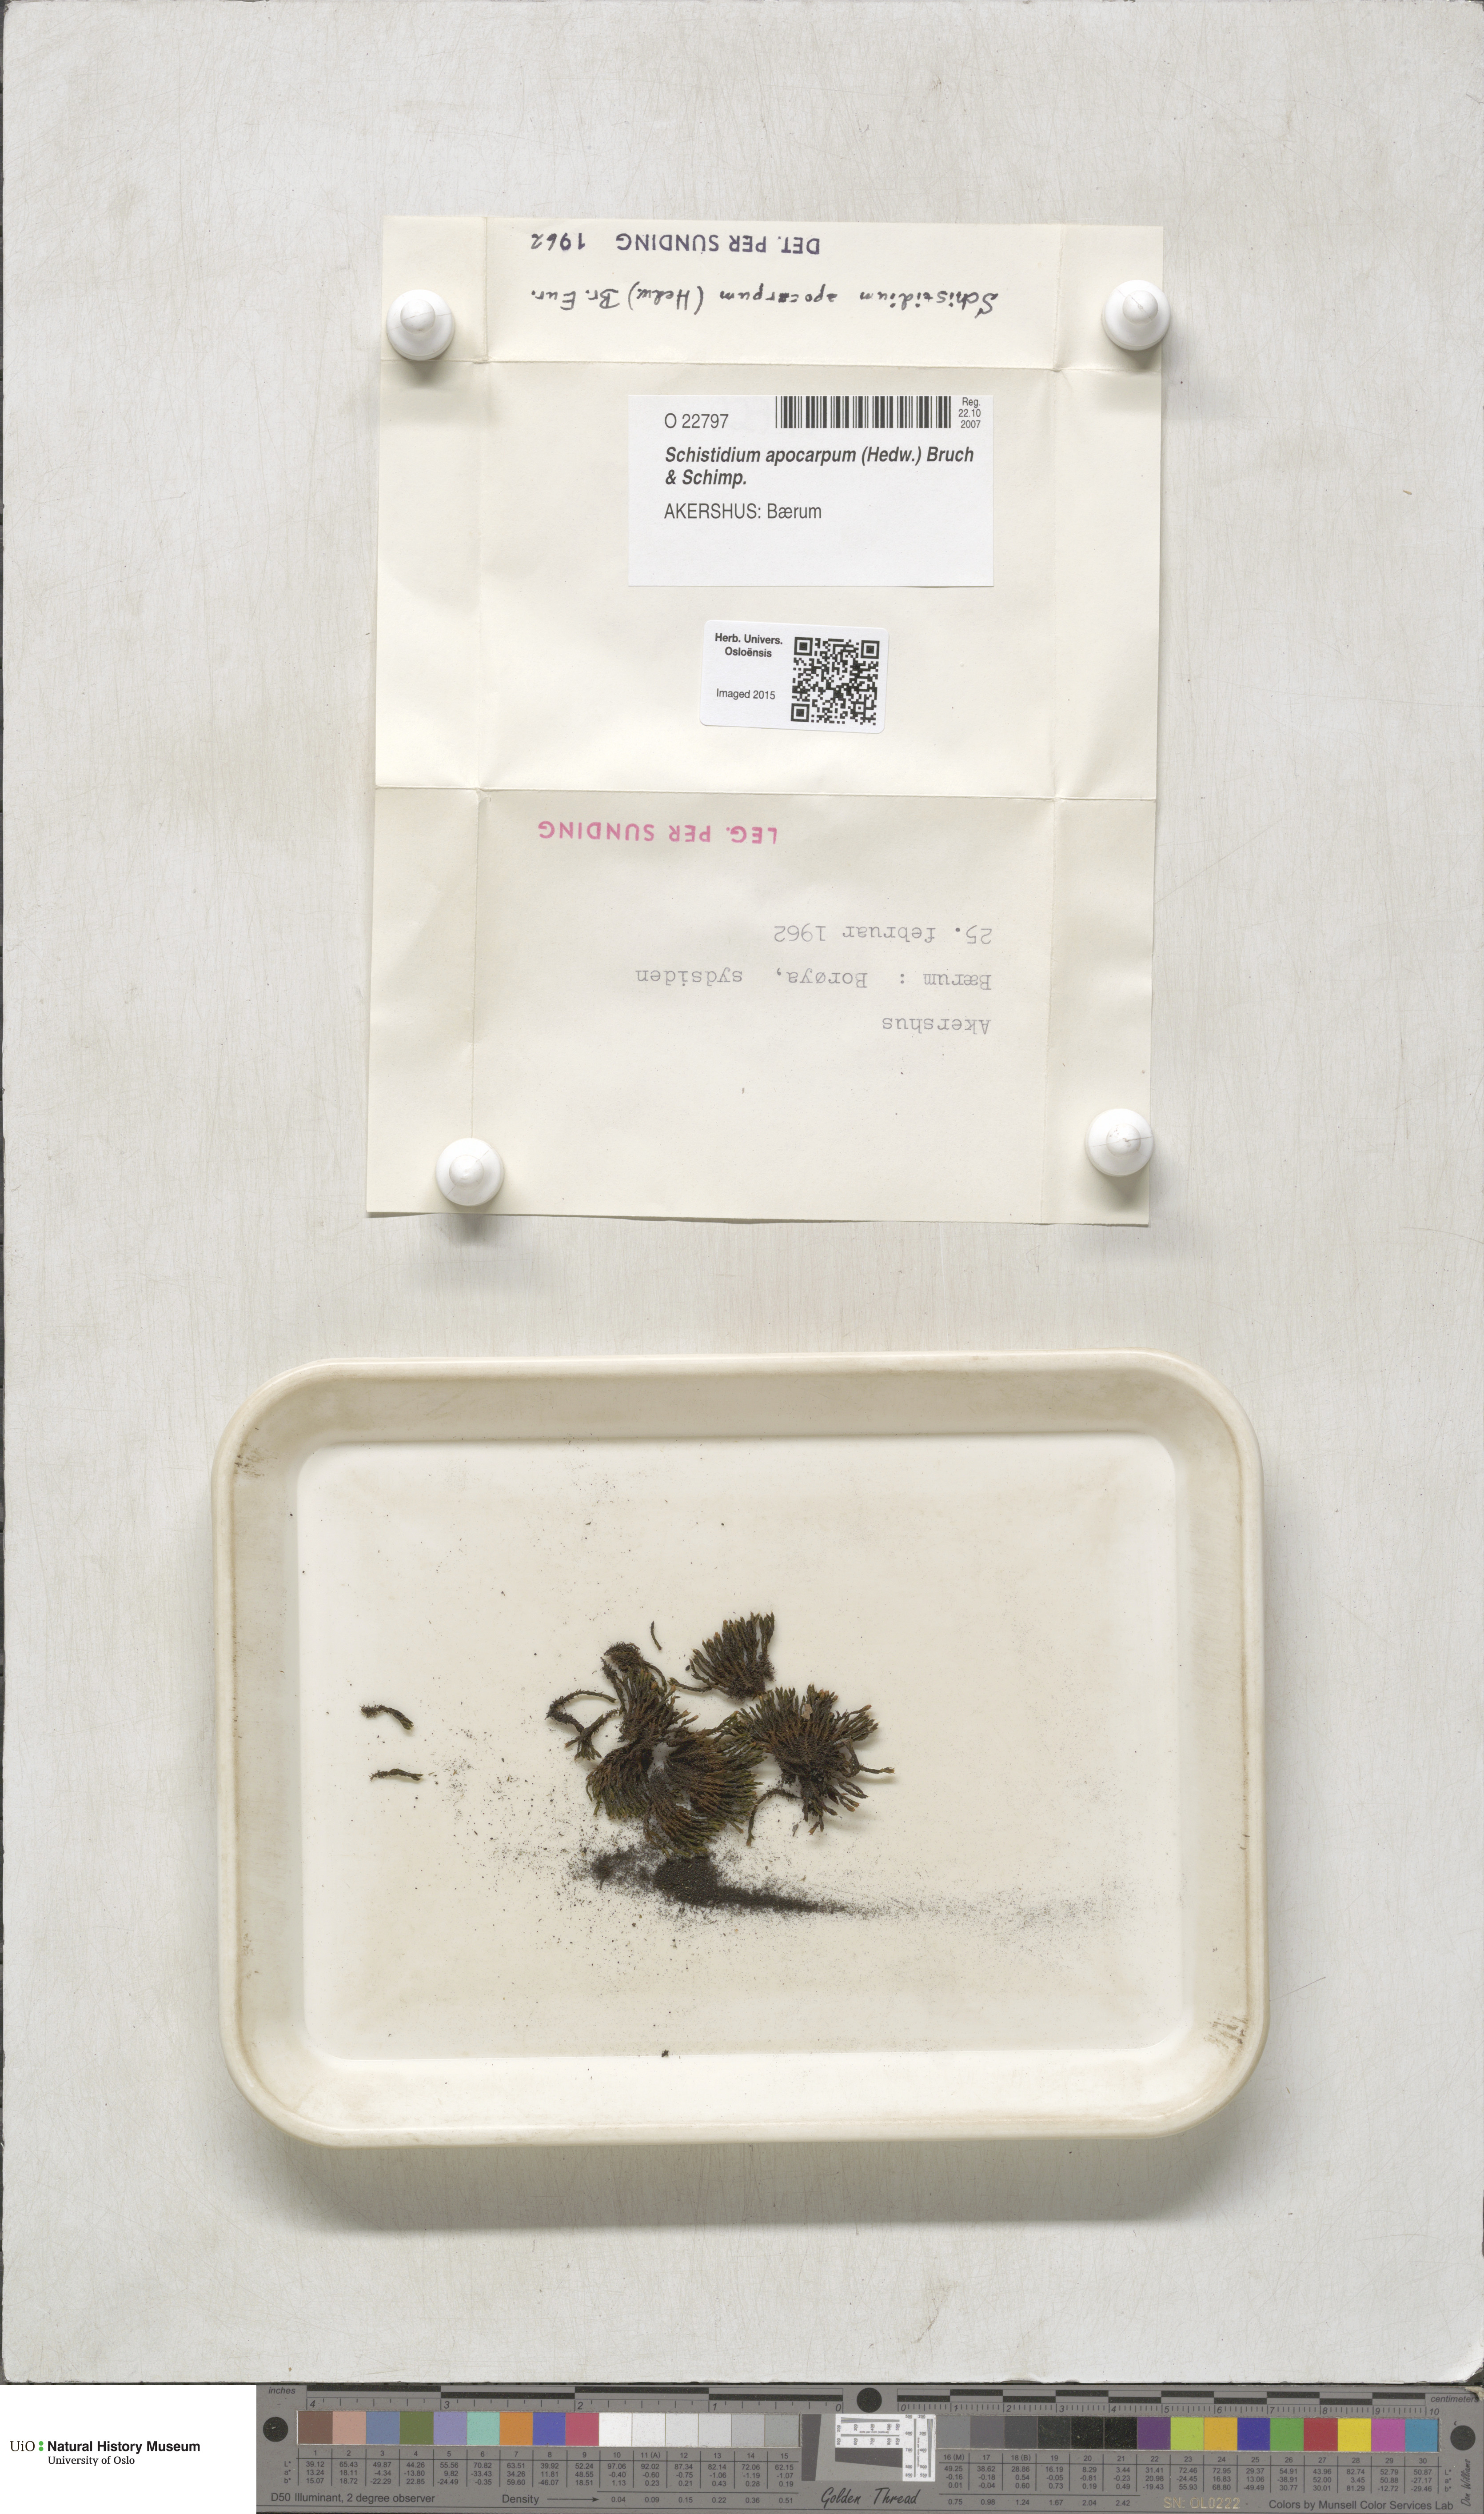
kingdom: Plantae
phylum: Bryophyta
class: Bryopsida
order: Grimmiales
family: Grimmiaceae
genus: Schistidium
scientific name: Schistidium apocarpum
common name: Radiate bloom moss
